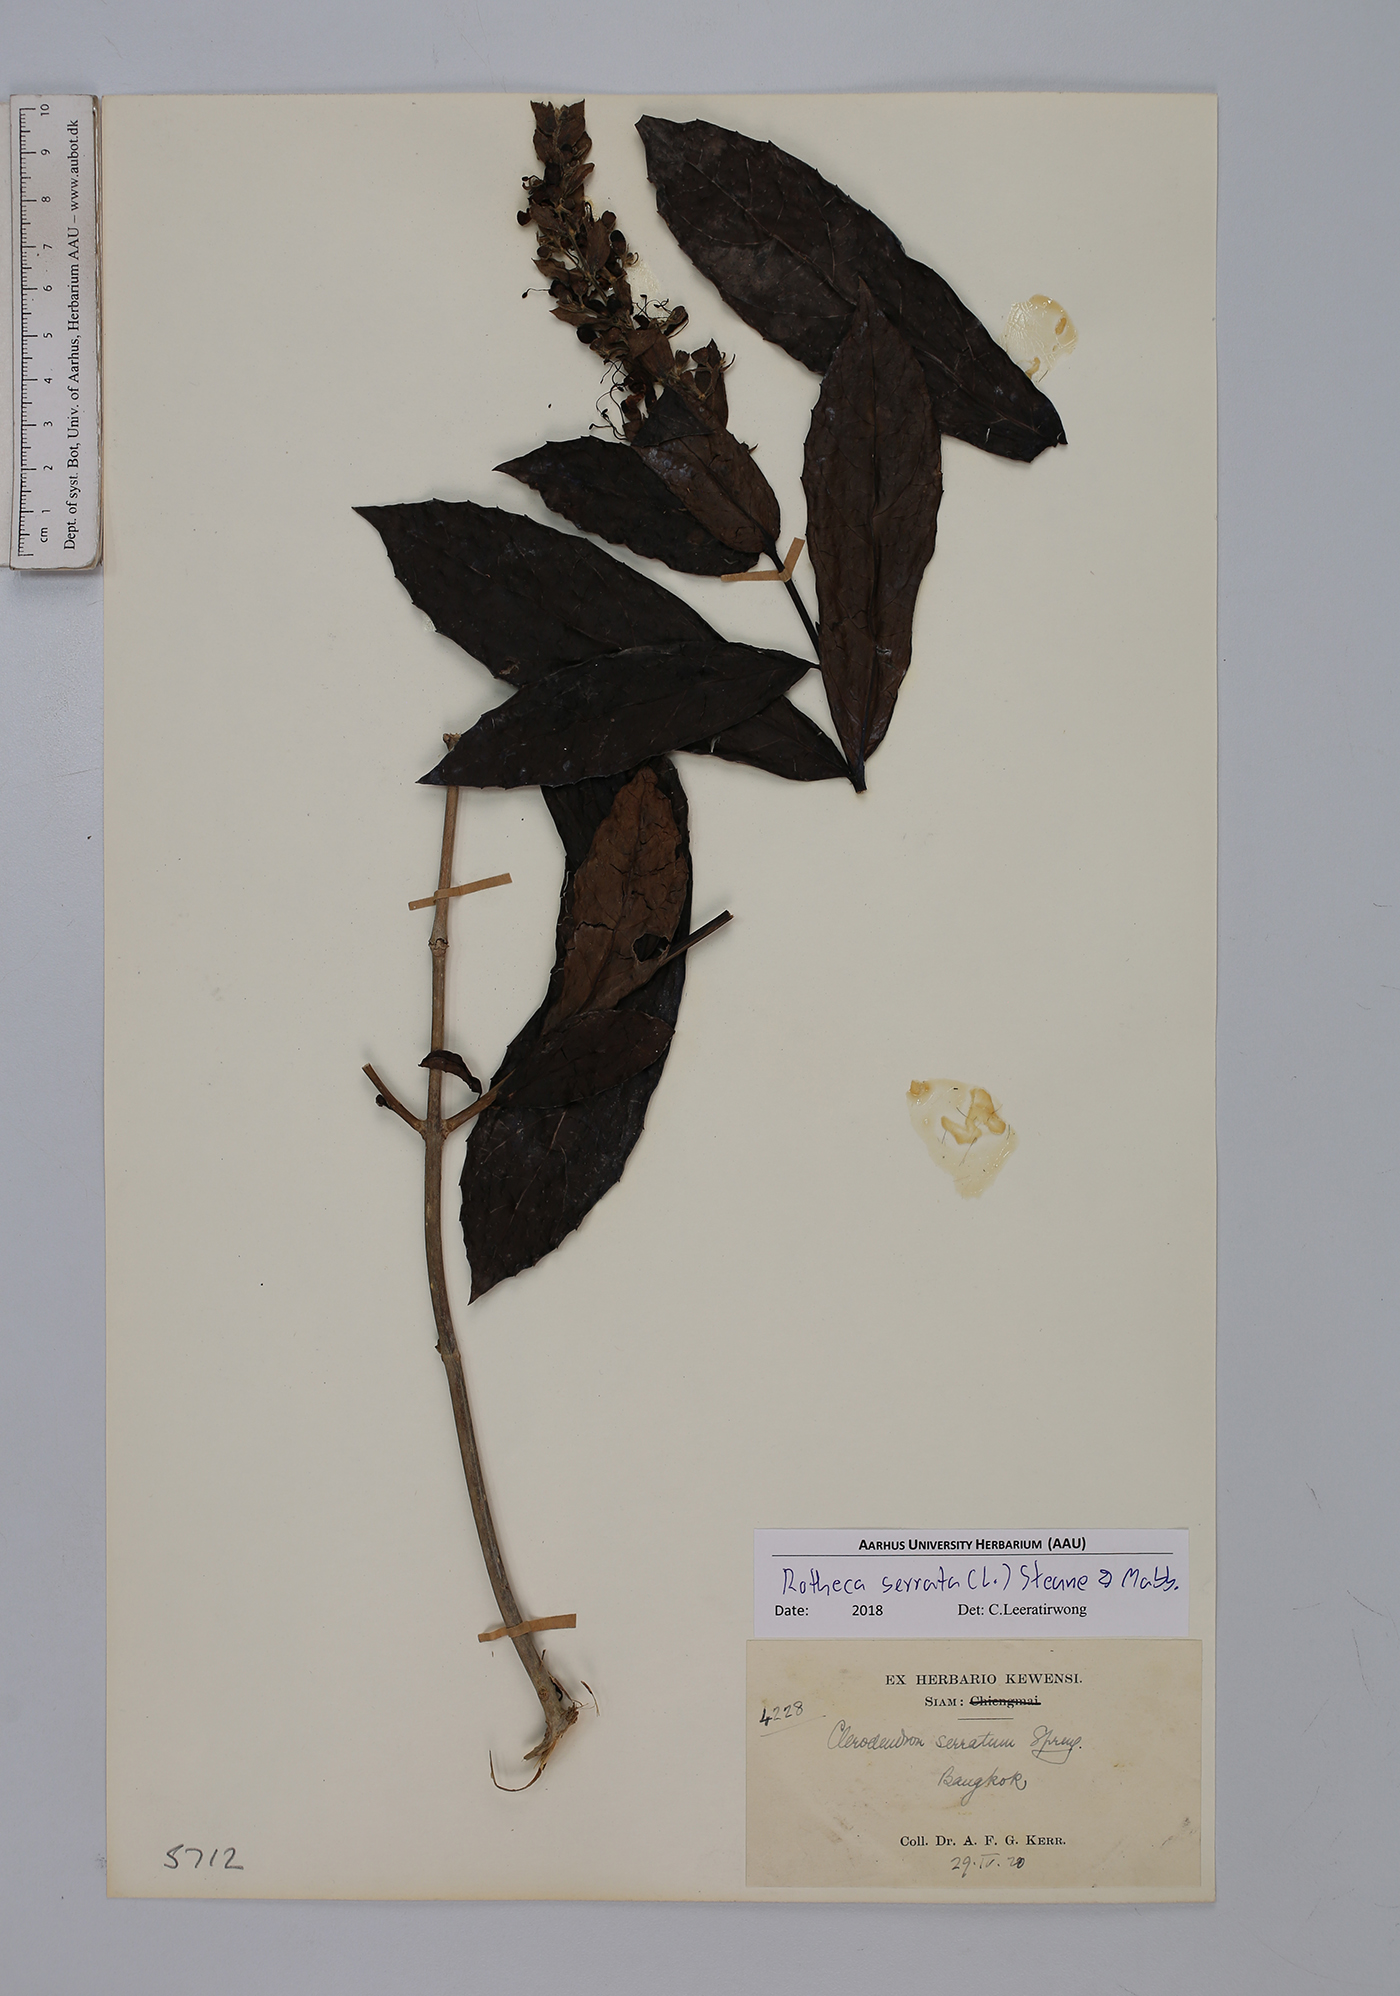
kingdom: Plantae
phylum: Tracheophyta
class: Magnoliopsida
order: Lamiales
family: Lamiaceae
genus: Rotheca
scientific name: Rotheca serrata
